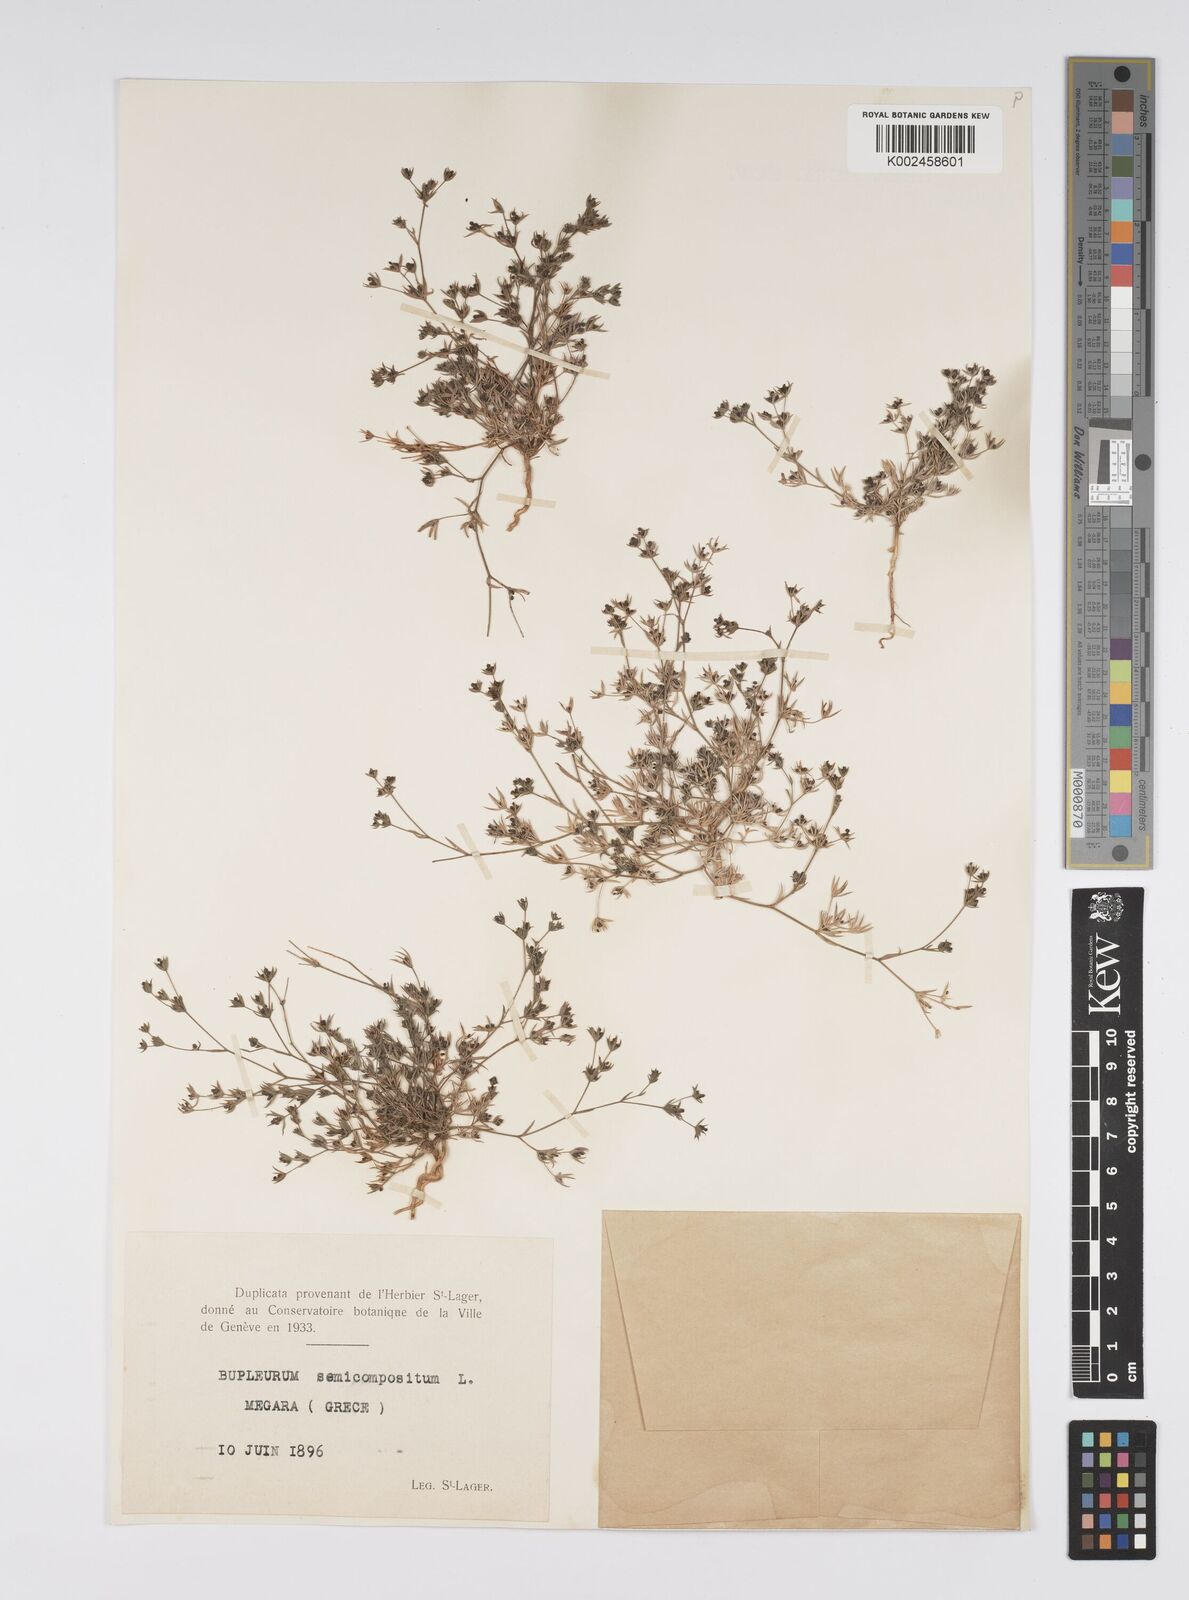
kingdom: Plantae
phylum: Tracheophyta
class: Magnoliopsida
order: Apiales
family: Apiaceae
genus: Bupleurum
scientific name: Bupleurum semicompositum
